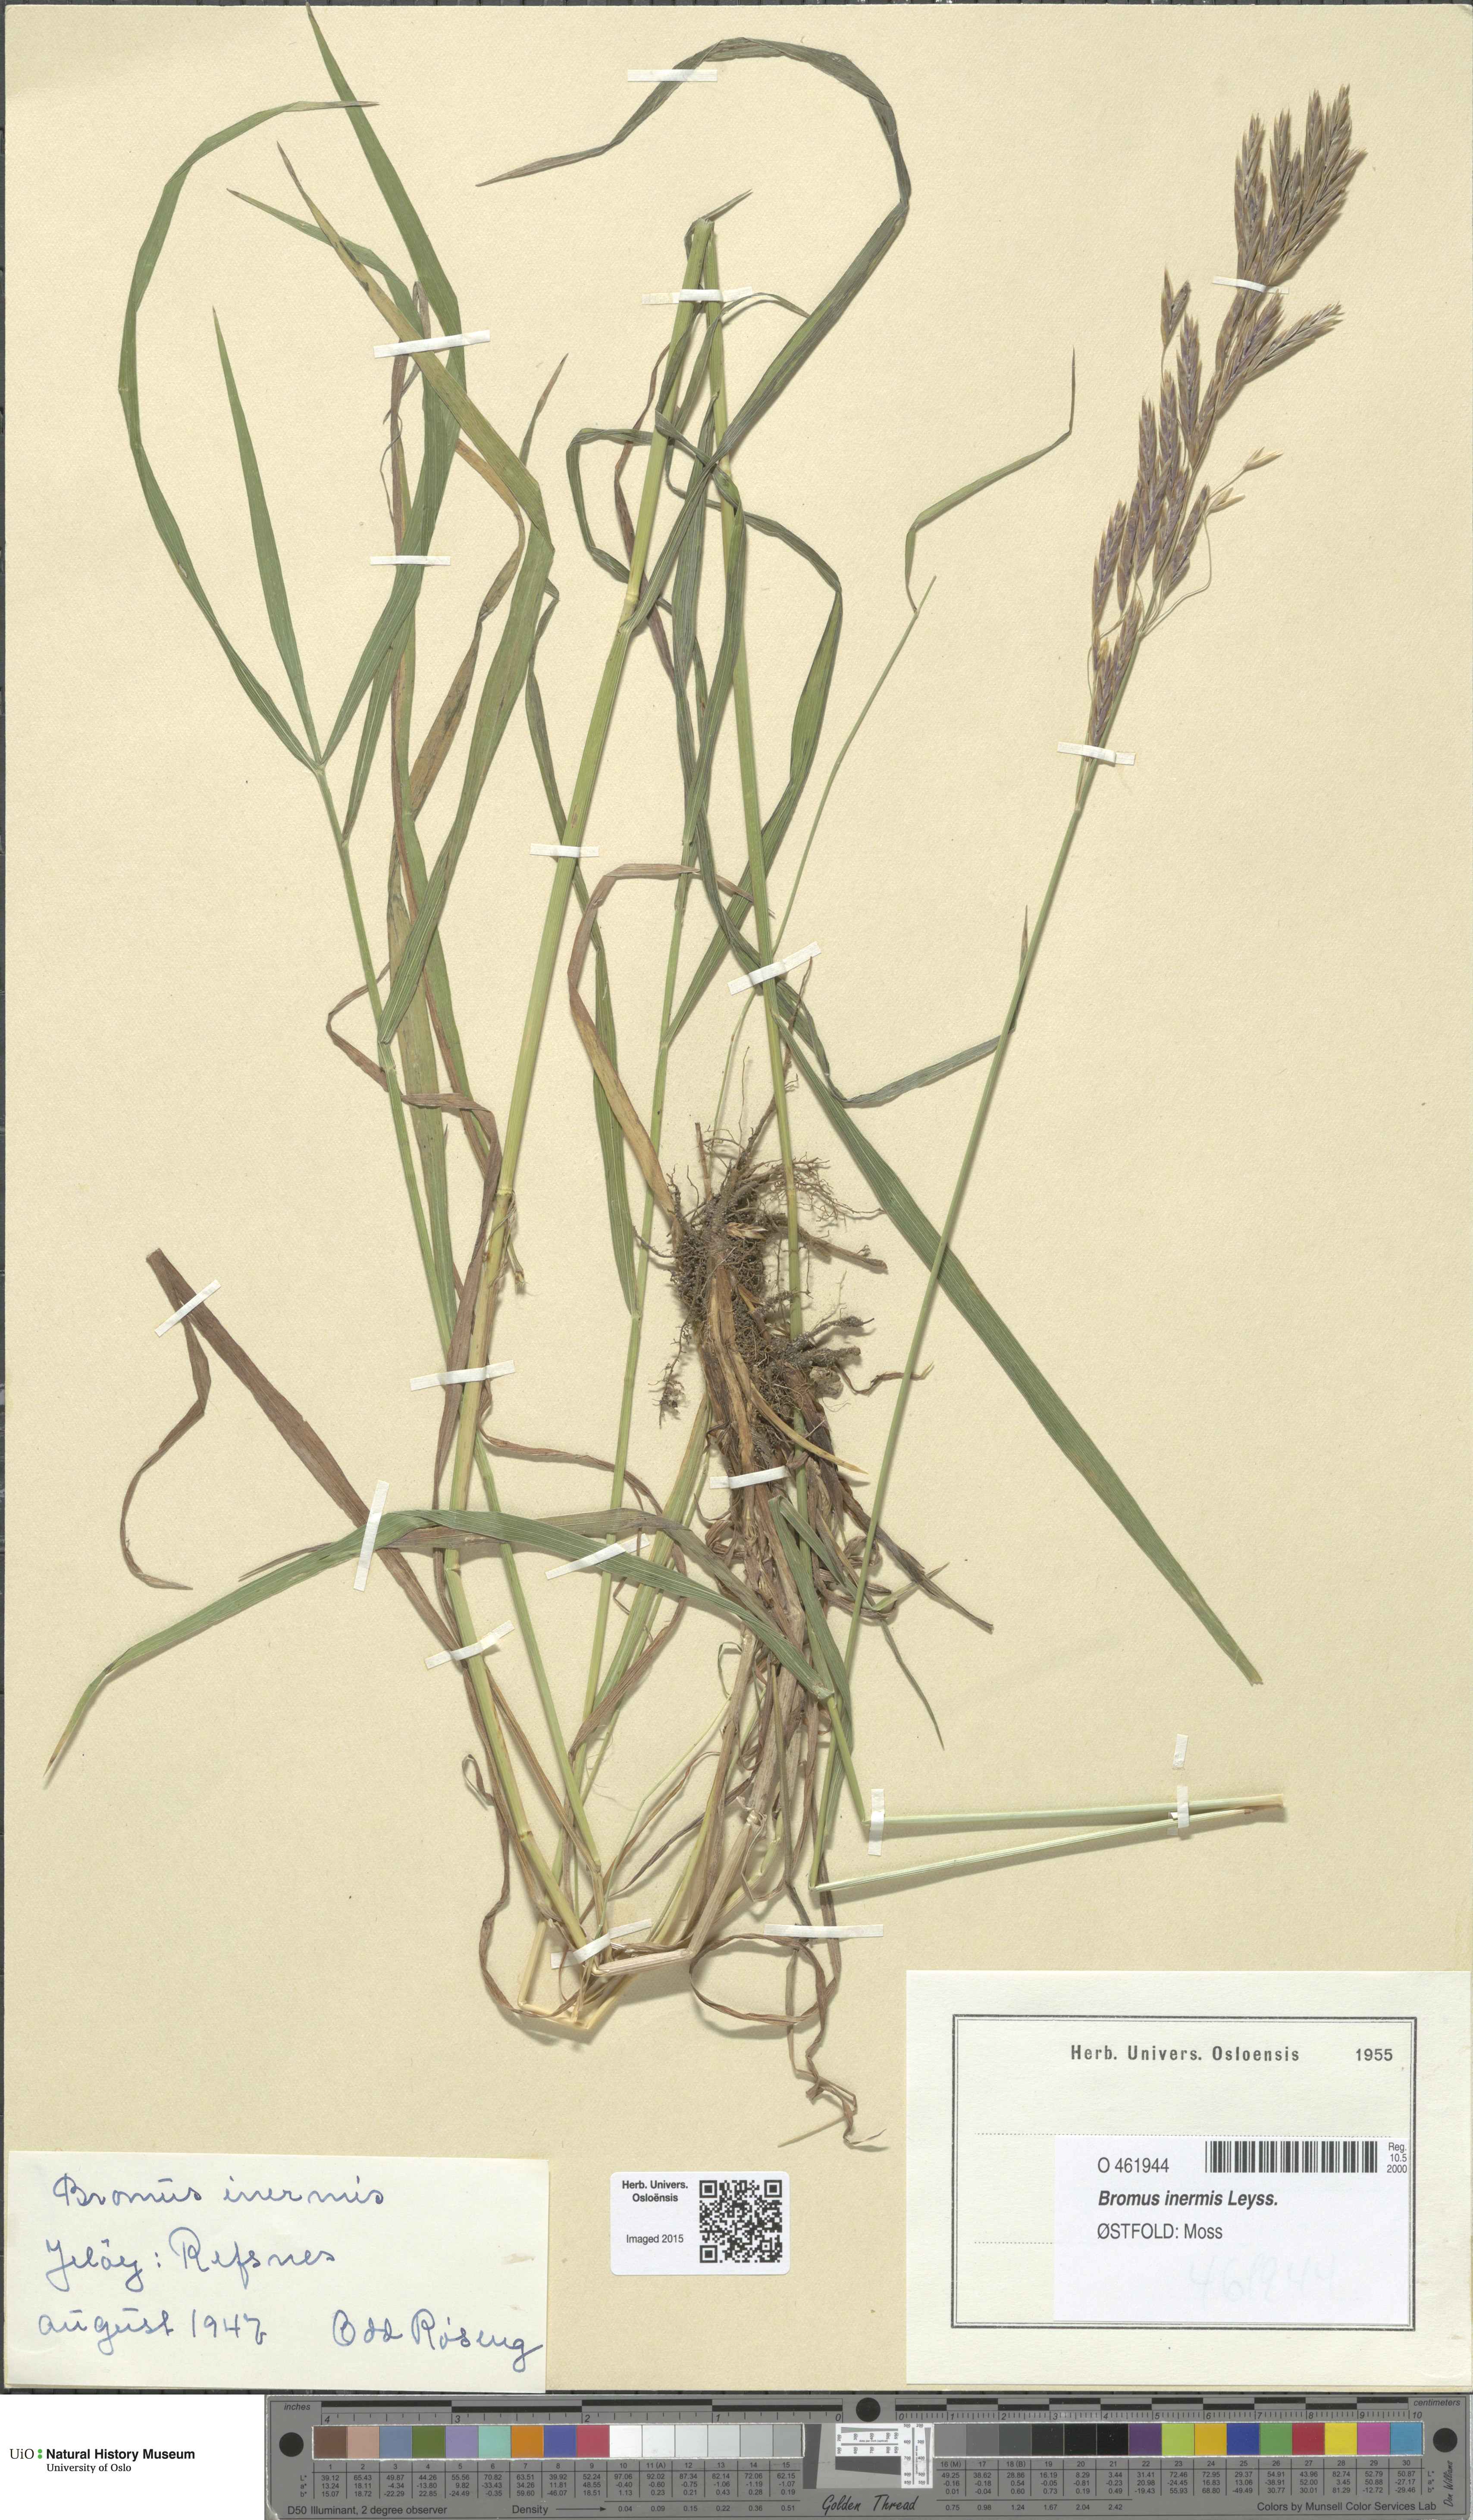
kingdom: Plantae
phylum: Tracheophyta
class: Liliopsida
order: Poales
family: Poaceae
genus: Bromus
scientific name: Bromus inermis
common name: Smooth brome
